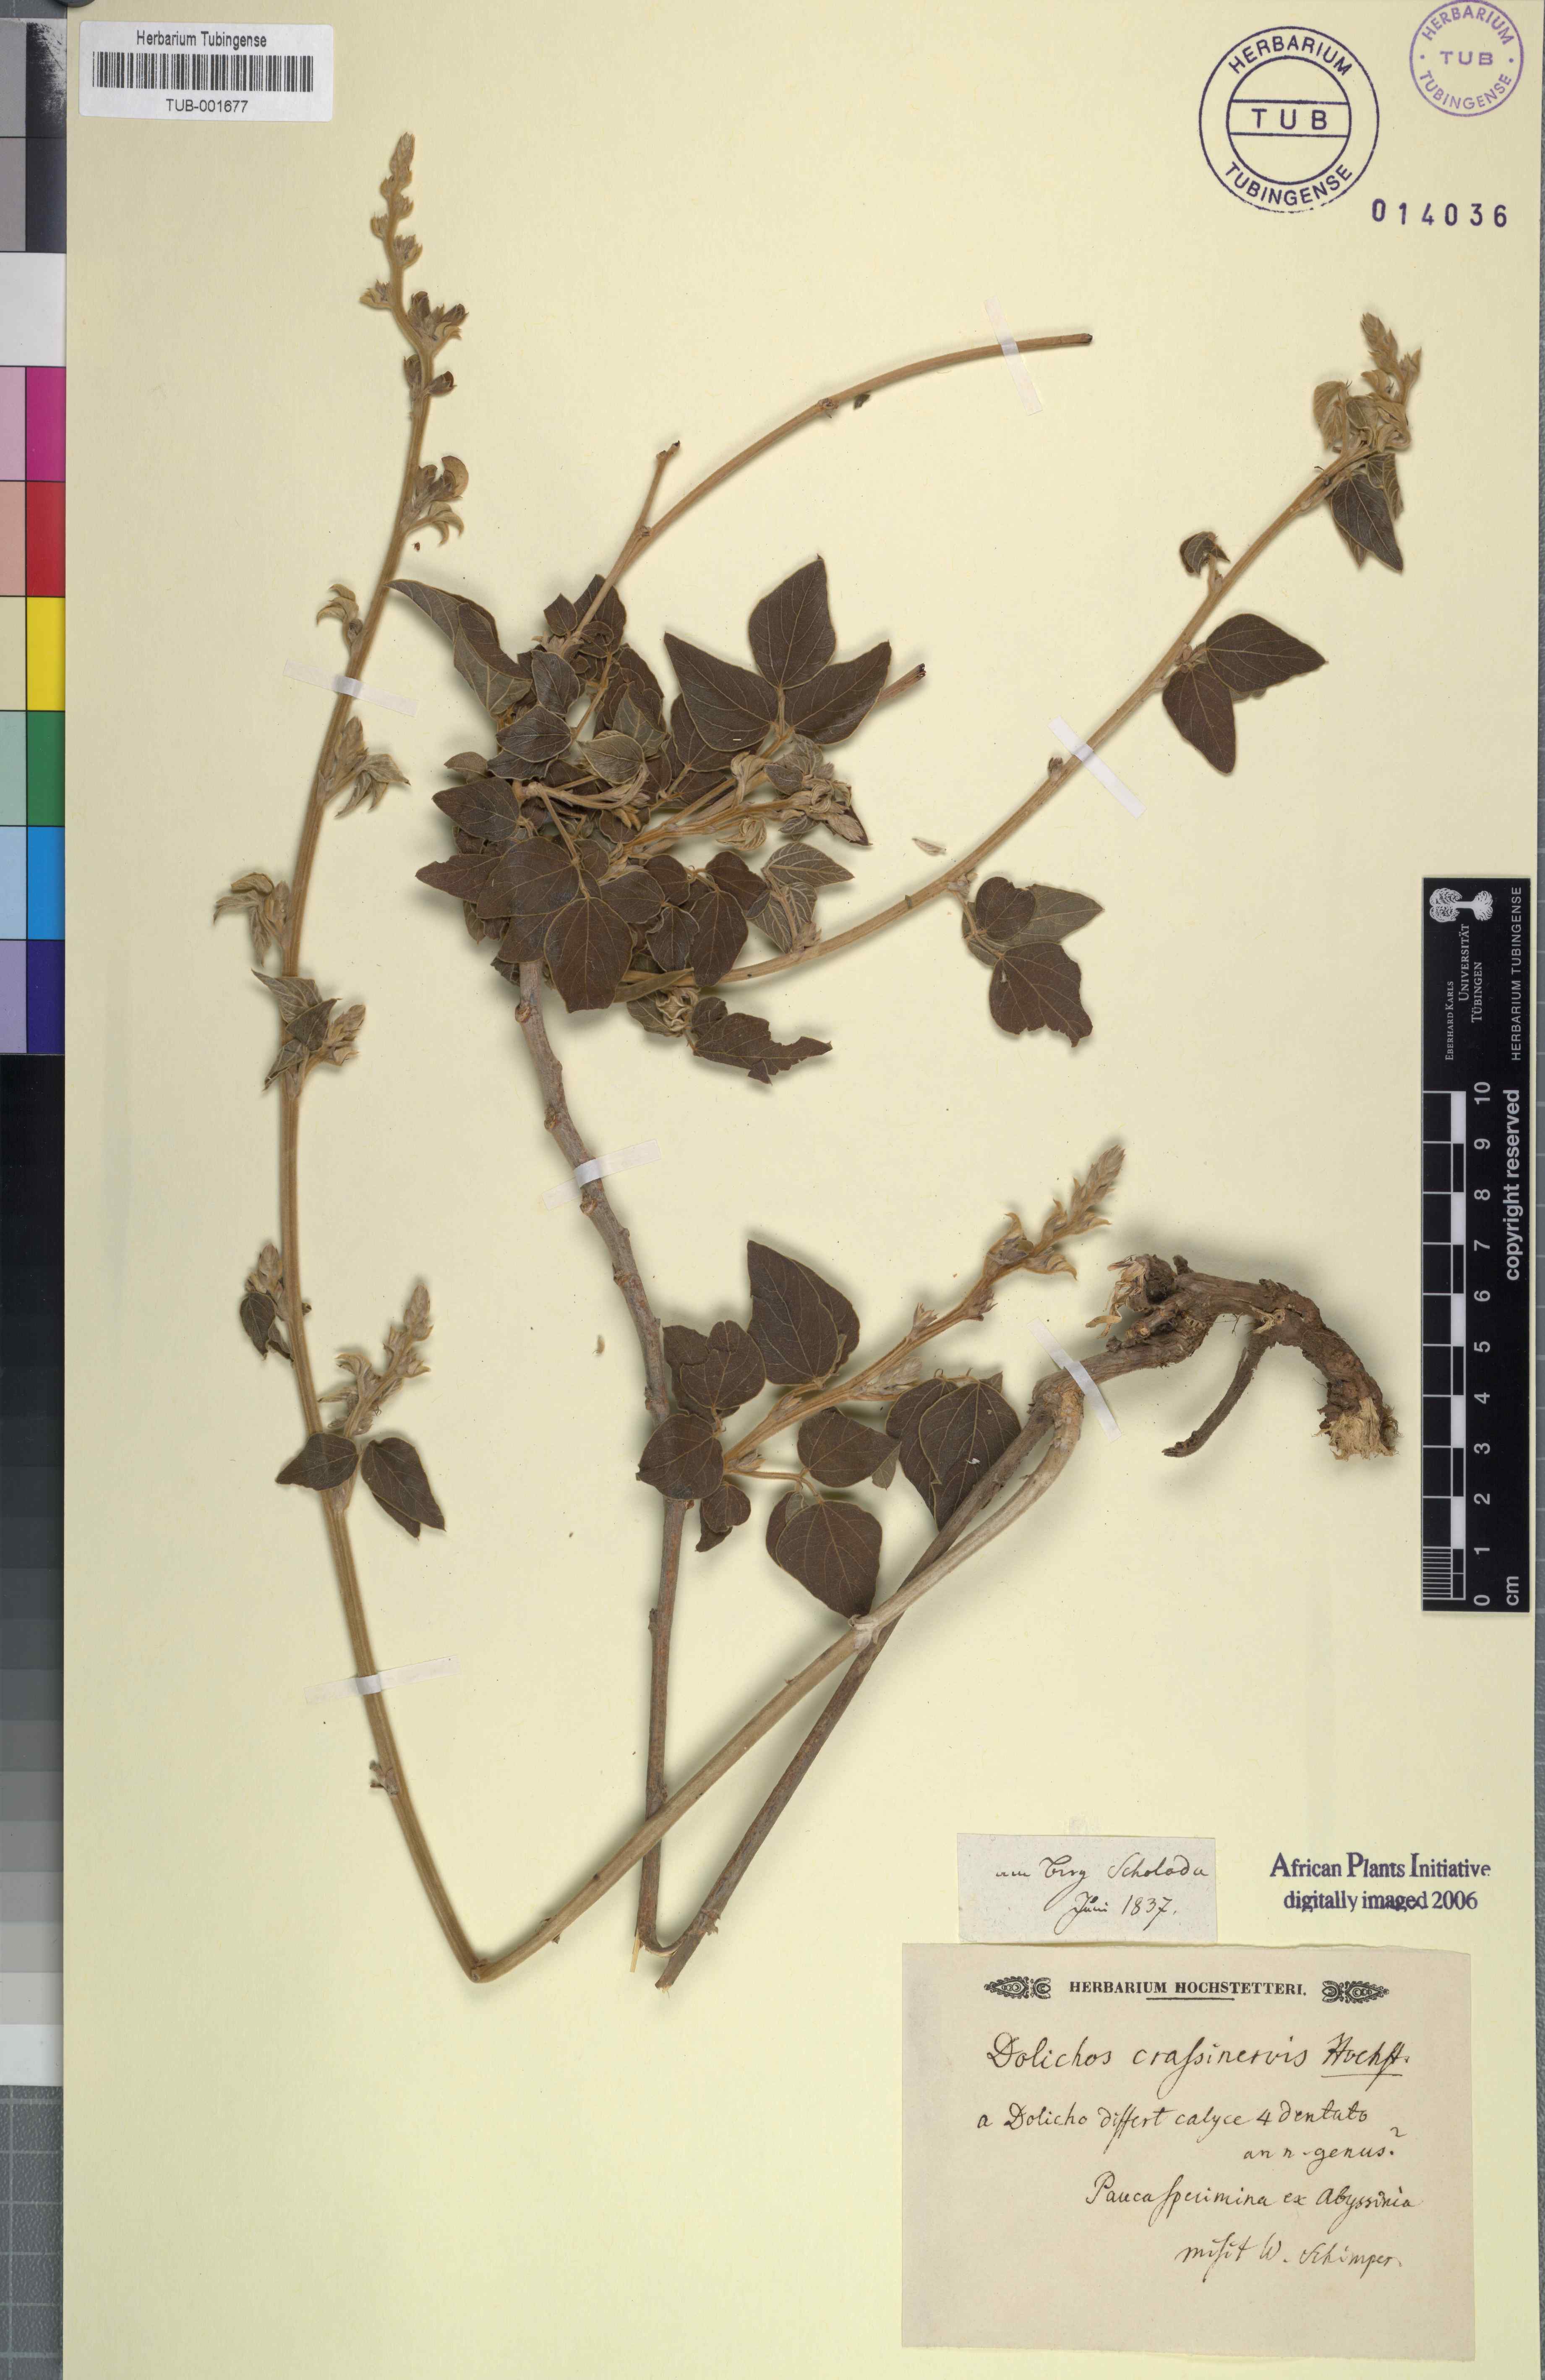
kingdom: Plantae
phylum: Tracheophyta
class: Magnoliopsida
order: Fabales
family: Fabaceae
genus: Dolichos
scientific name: Dolichos
